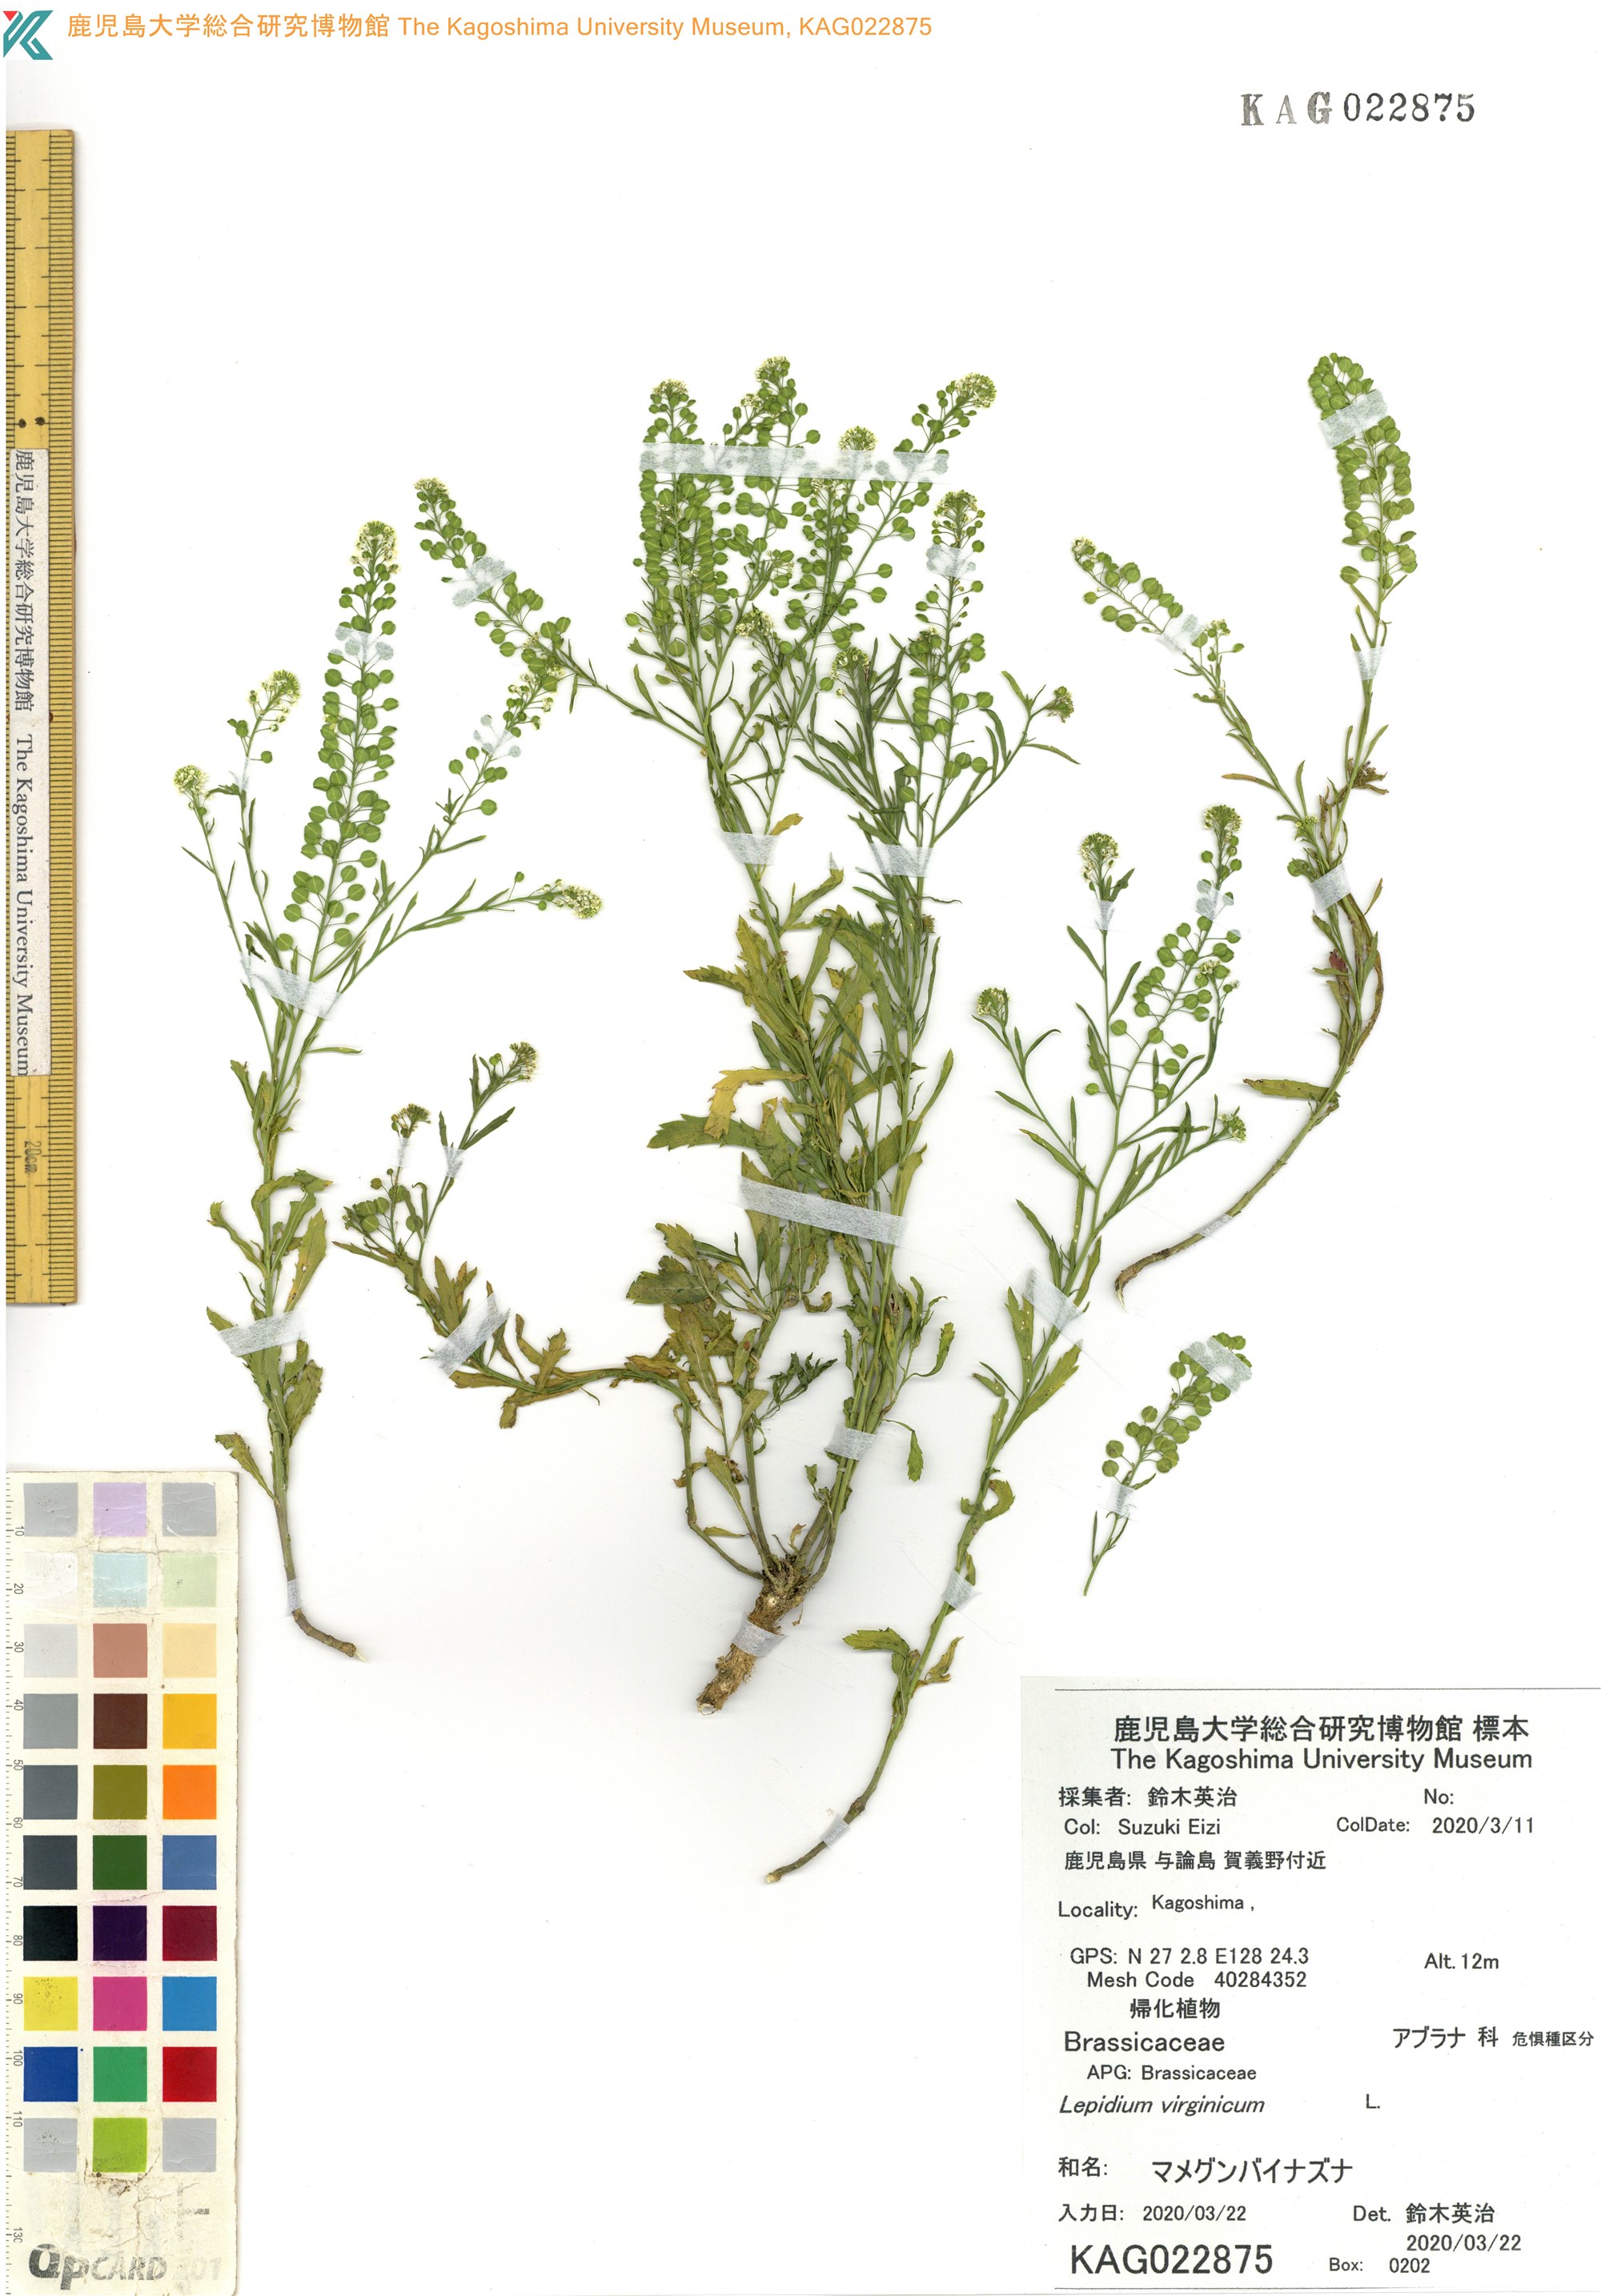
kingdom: Plantae
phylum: Tracheophyta
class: Magnoliopsida
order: Brassicales
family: Brassicaceae
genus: Lepidium
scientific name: Lepidium virginicum
